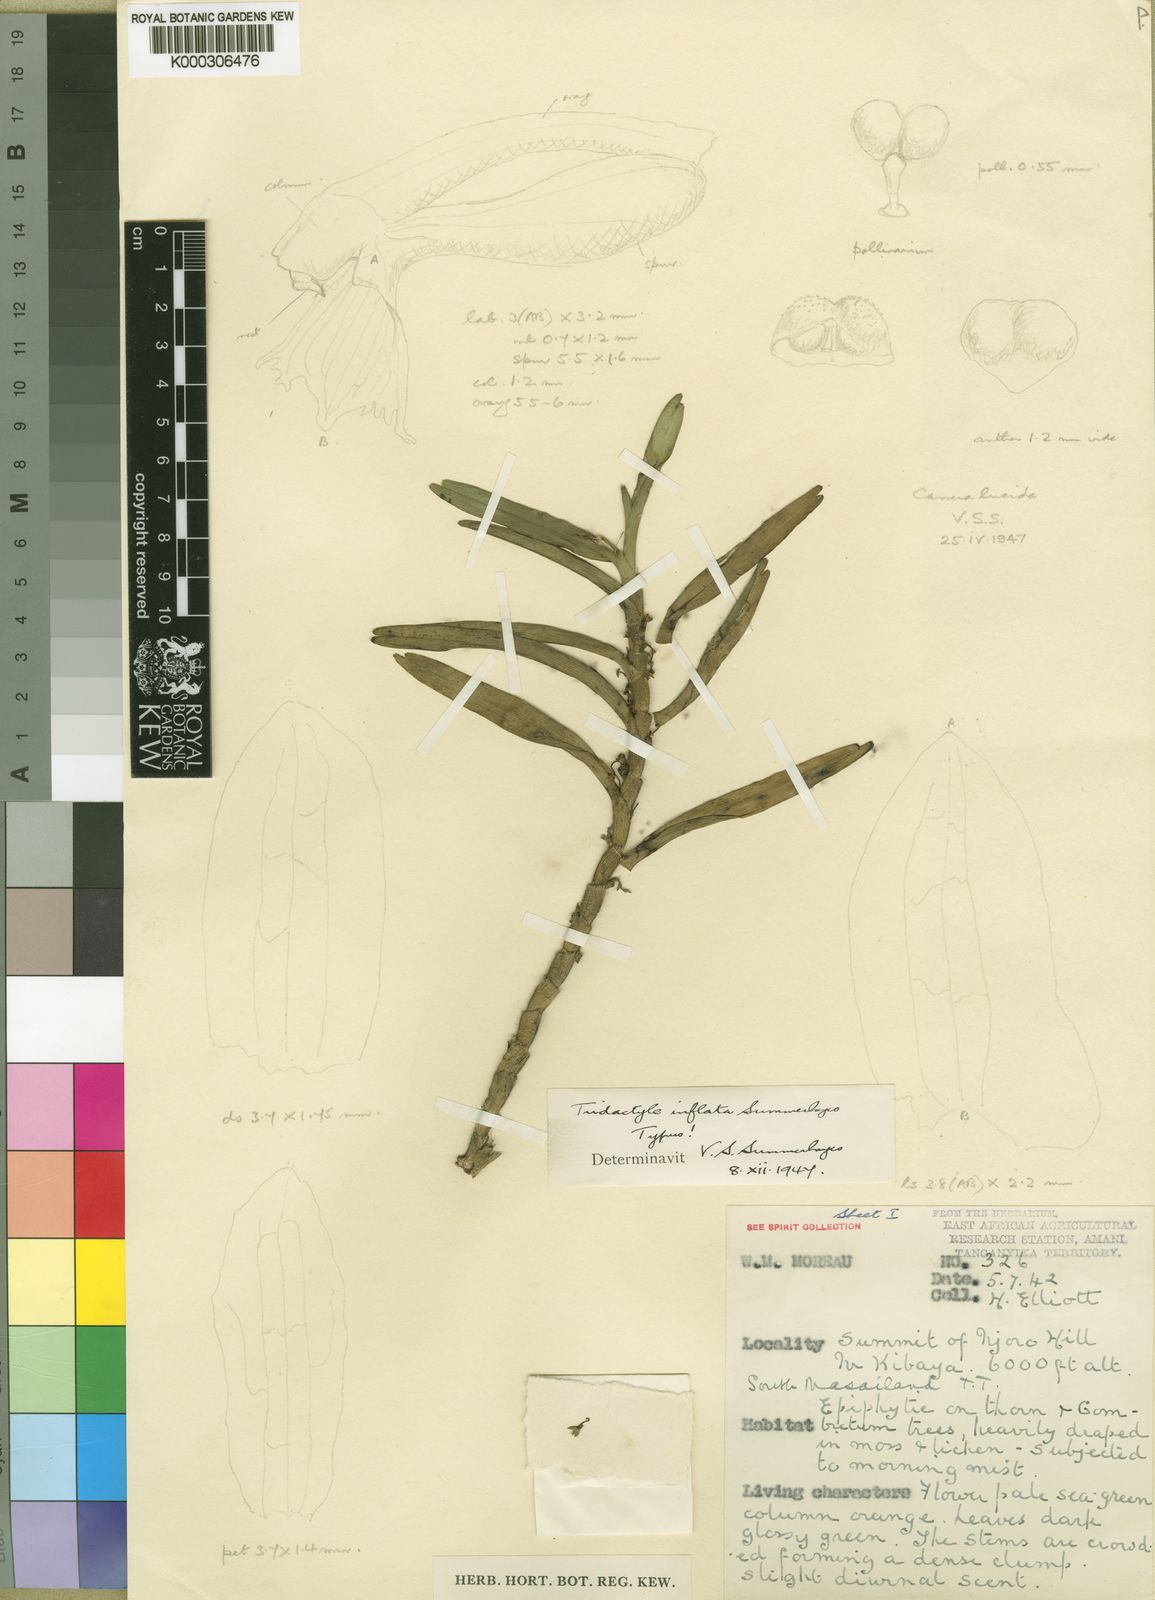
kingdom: Plantae
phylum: Tracheophyta
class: Liliopsida
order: Asparagales
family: Orchidaceae
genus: Tridactyle
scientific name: Tridactyle inflata
